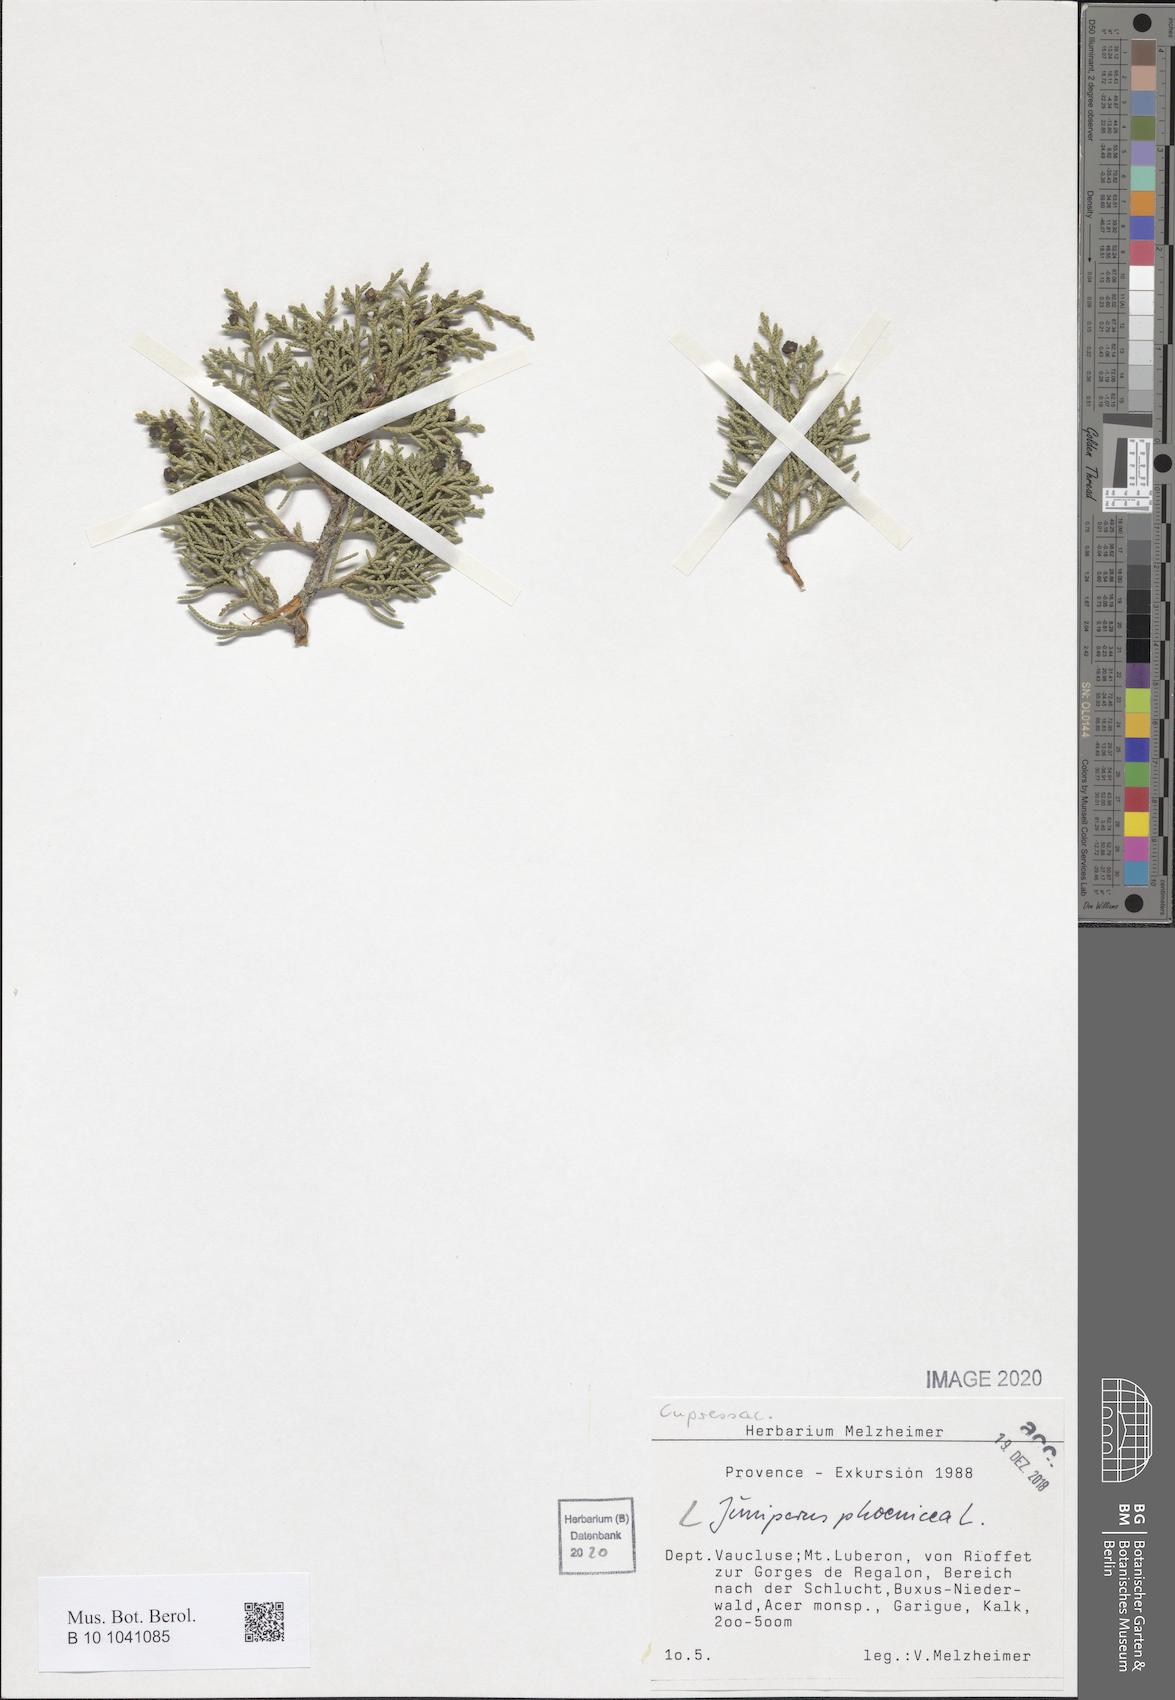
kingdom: Plantae
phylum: Tracheophyta
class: Pinopsida
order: Pinales
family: Cupressaceae
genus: Juniperus
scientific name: Juniperus phoenicea
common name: Phoenician juniper
